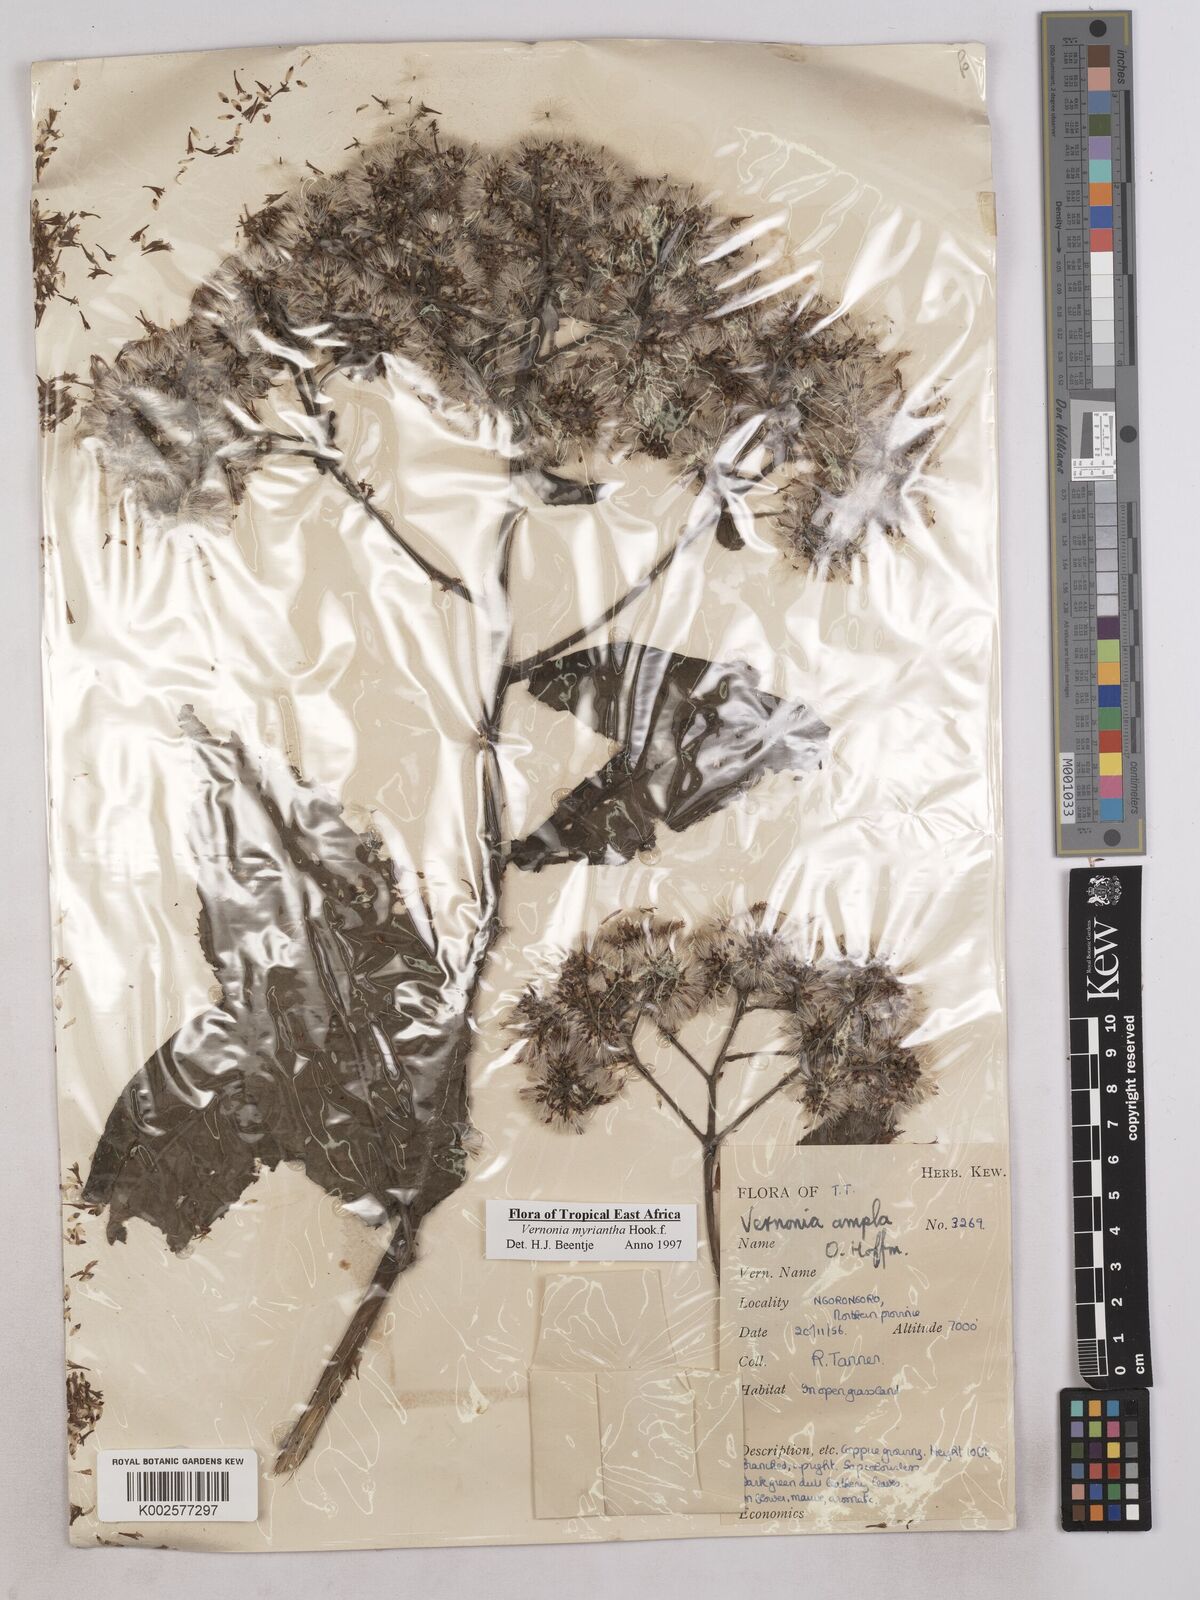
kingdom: Plantae
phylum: Tracheophyta
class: Magnoliopsida
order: Asterales
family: Asteraceae
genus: Gymnanthemum
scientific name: Gymnanthemum myrianthum
